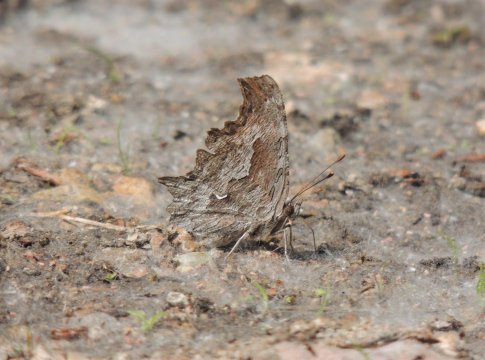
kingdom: Animalia
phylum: Arthropoda
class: Insecta
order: Lepidoptera
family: Nymphalidae
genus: Polygonia
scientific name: Polygonia gracilis
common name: Hoary Comma
